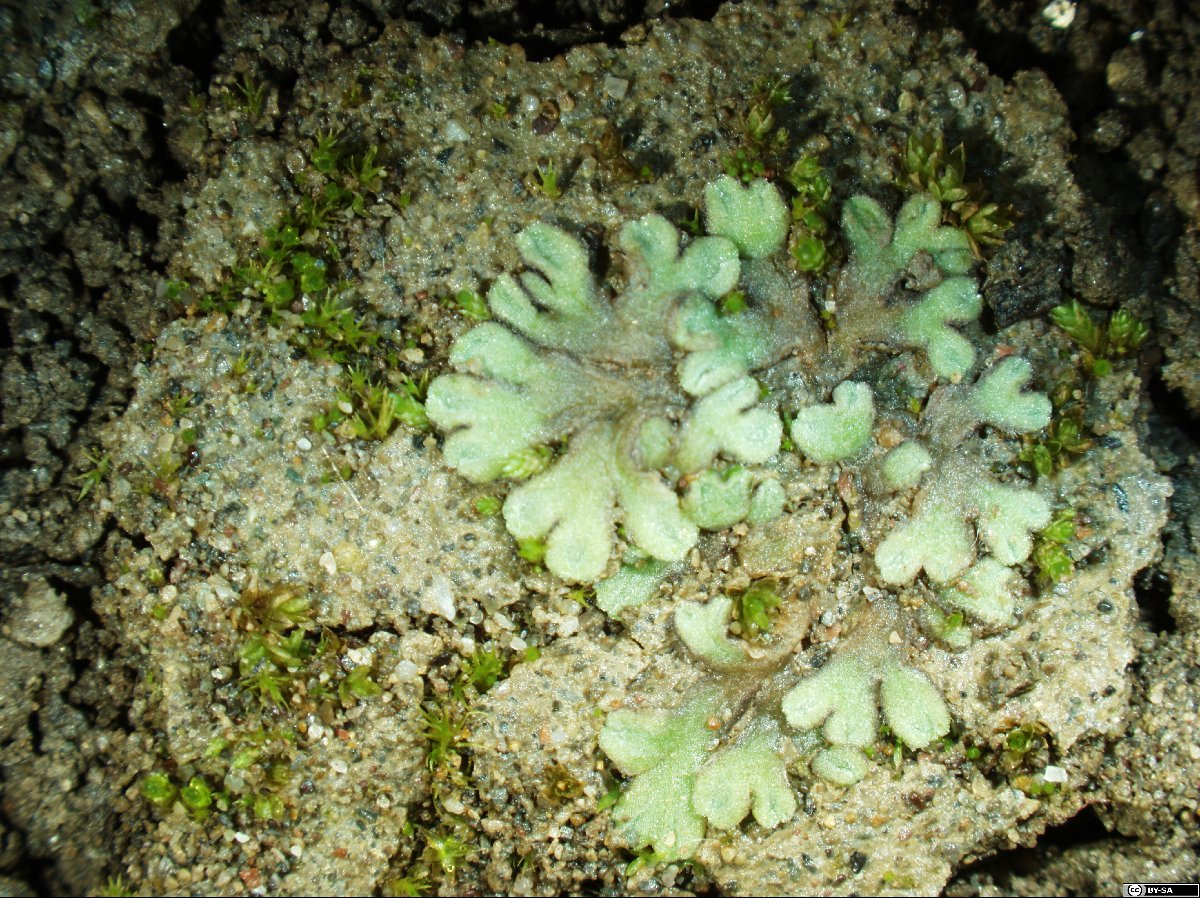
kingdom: Plantae
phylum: Marchantiophyta
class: Marchantiopsida
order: Marchantiales
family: Ricciaceae
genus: Riccia
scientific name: Riccia beyrichiana
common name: Purple crystalwort
